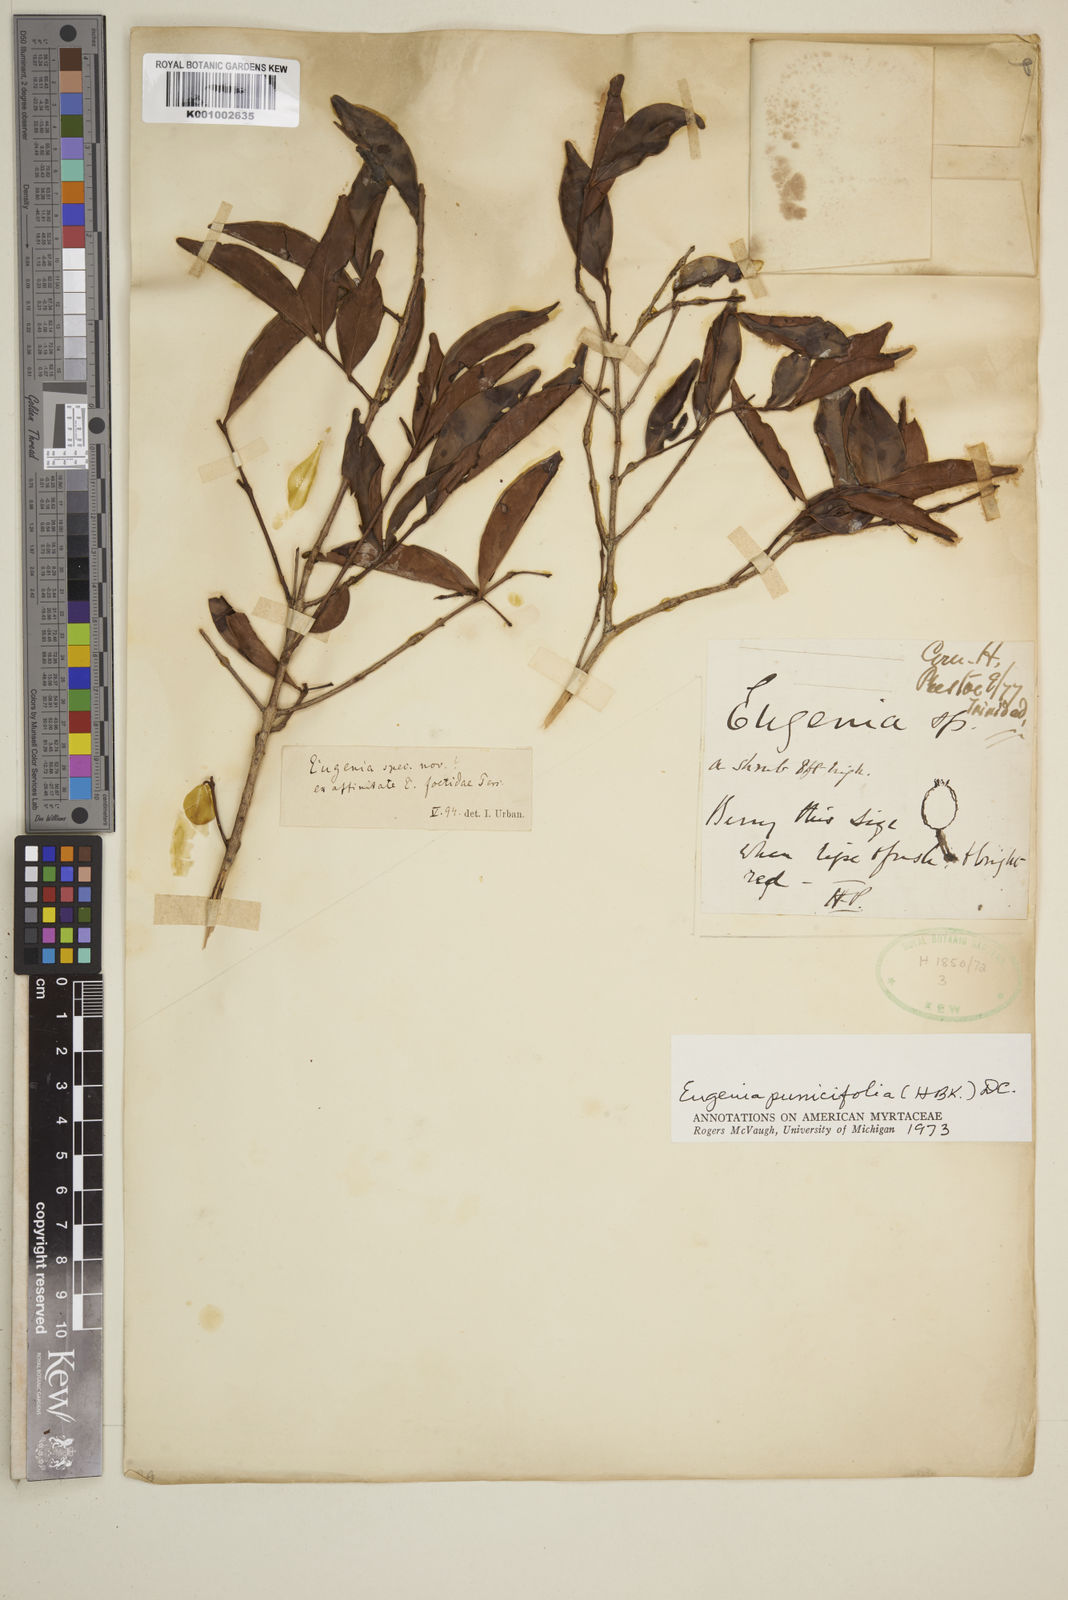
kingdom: Plantae
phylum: Tracheophyta
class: Magnoliopsida
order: Myrtales
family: Myrtaceae
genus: Eugenia
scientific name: Eugenia
